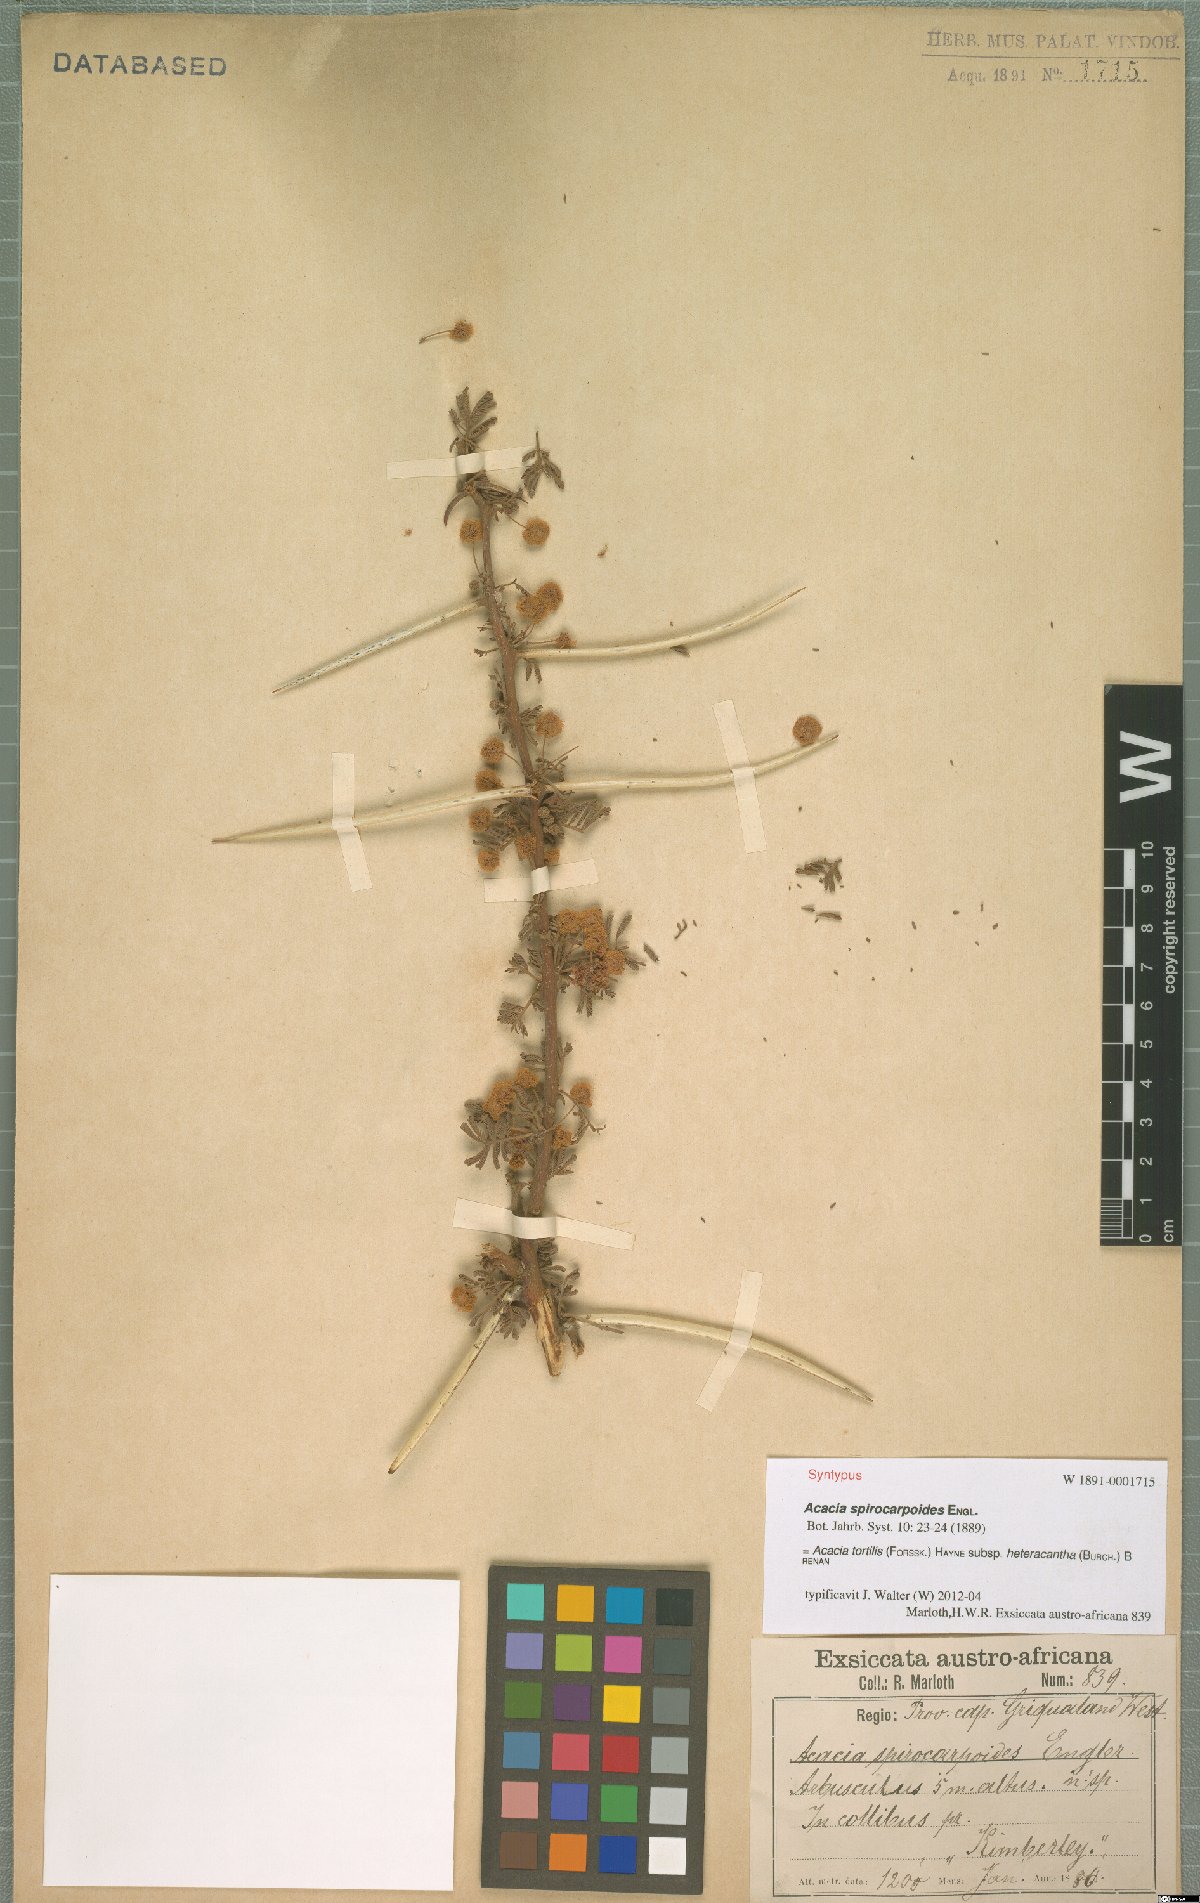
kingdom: Plantae
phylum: Tracheophyta
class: Magnoliopsida
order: Fabales
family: Fabaceae
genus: Vachellia
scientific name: Vachellia tortilis
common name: Umbrella thorn acacia
